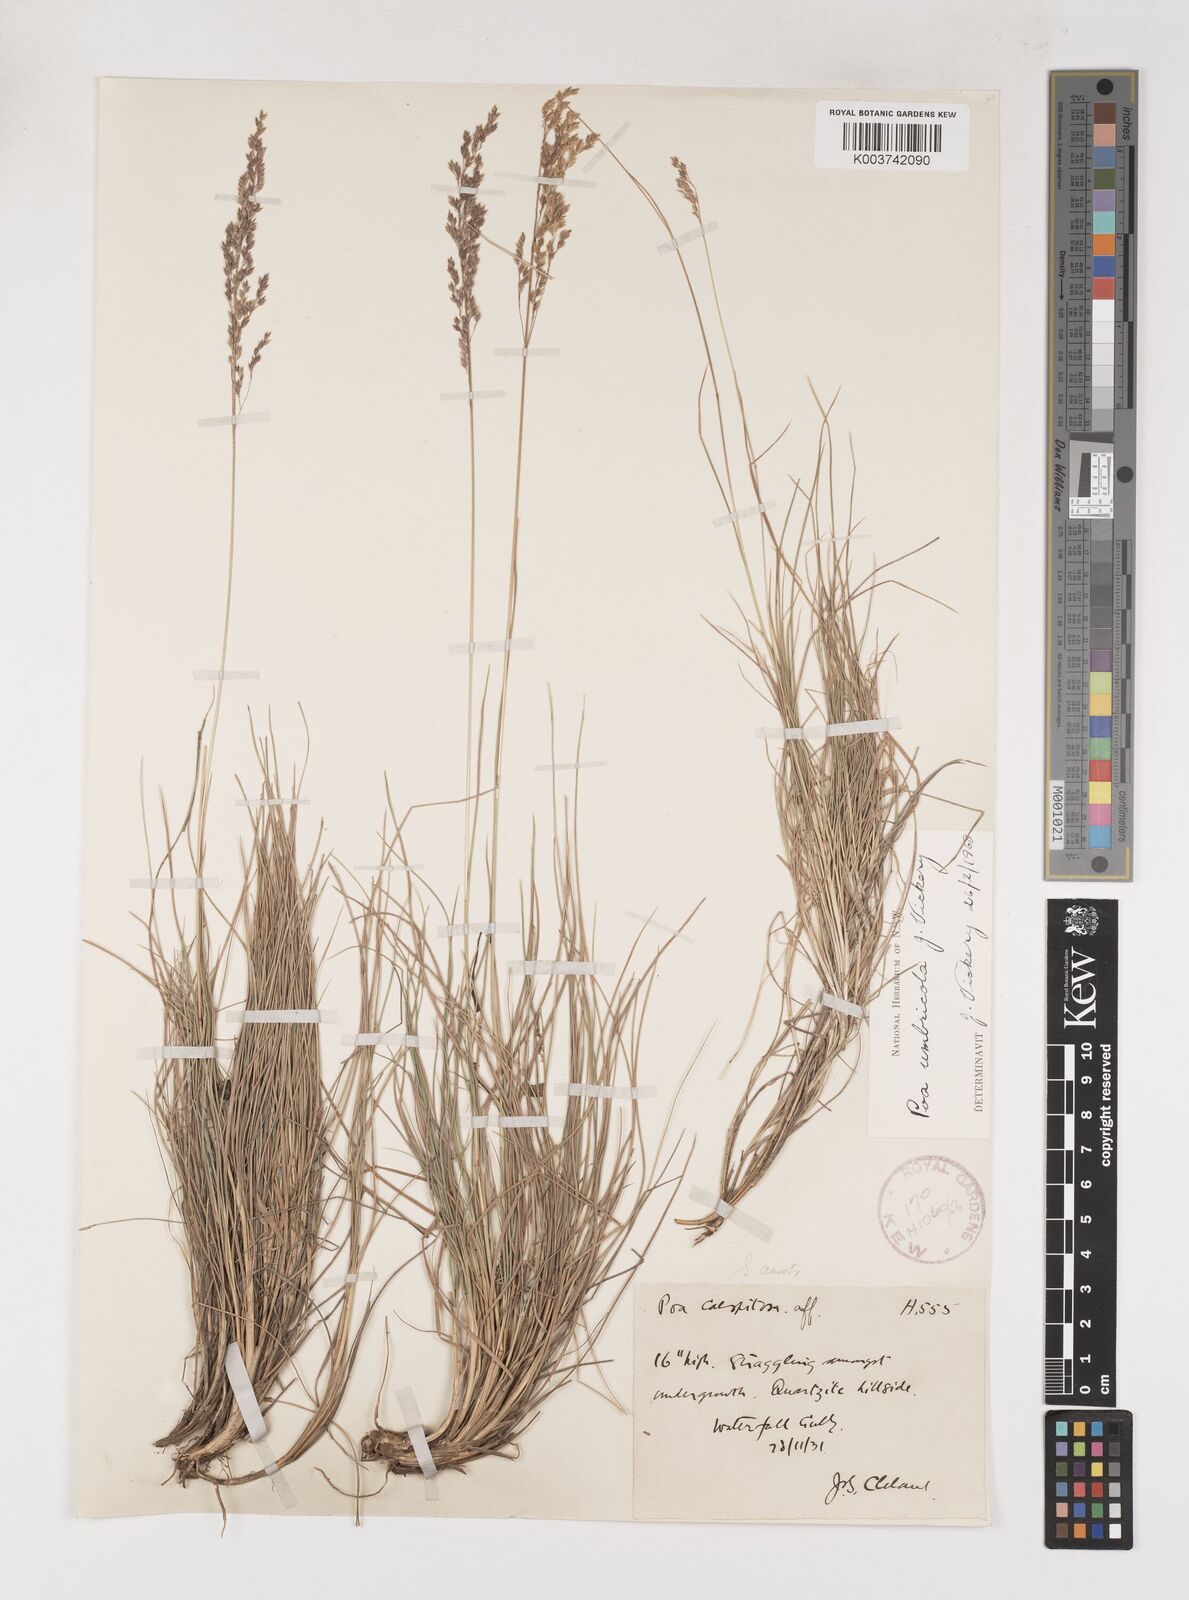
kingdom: Plantae
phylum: Tracheophyta
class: Liliopsida
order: Poales
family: Poaceae
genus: Poa
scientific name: Poa umbricola
